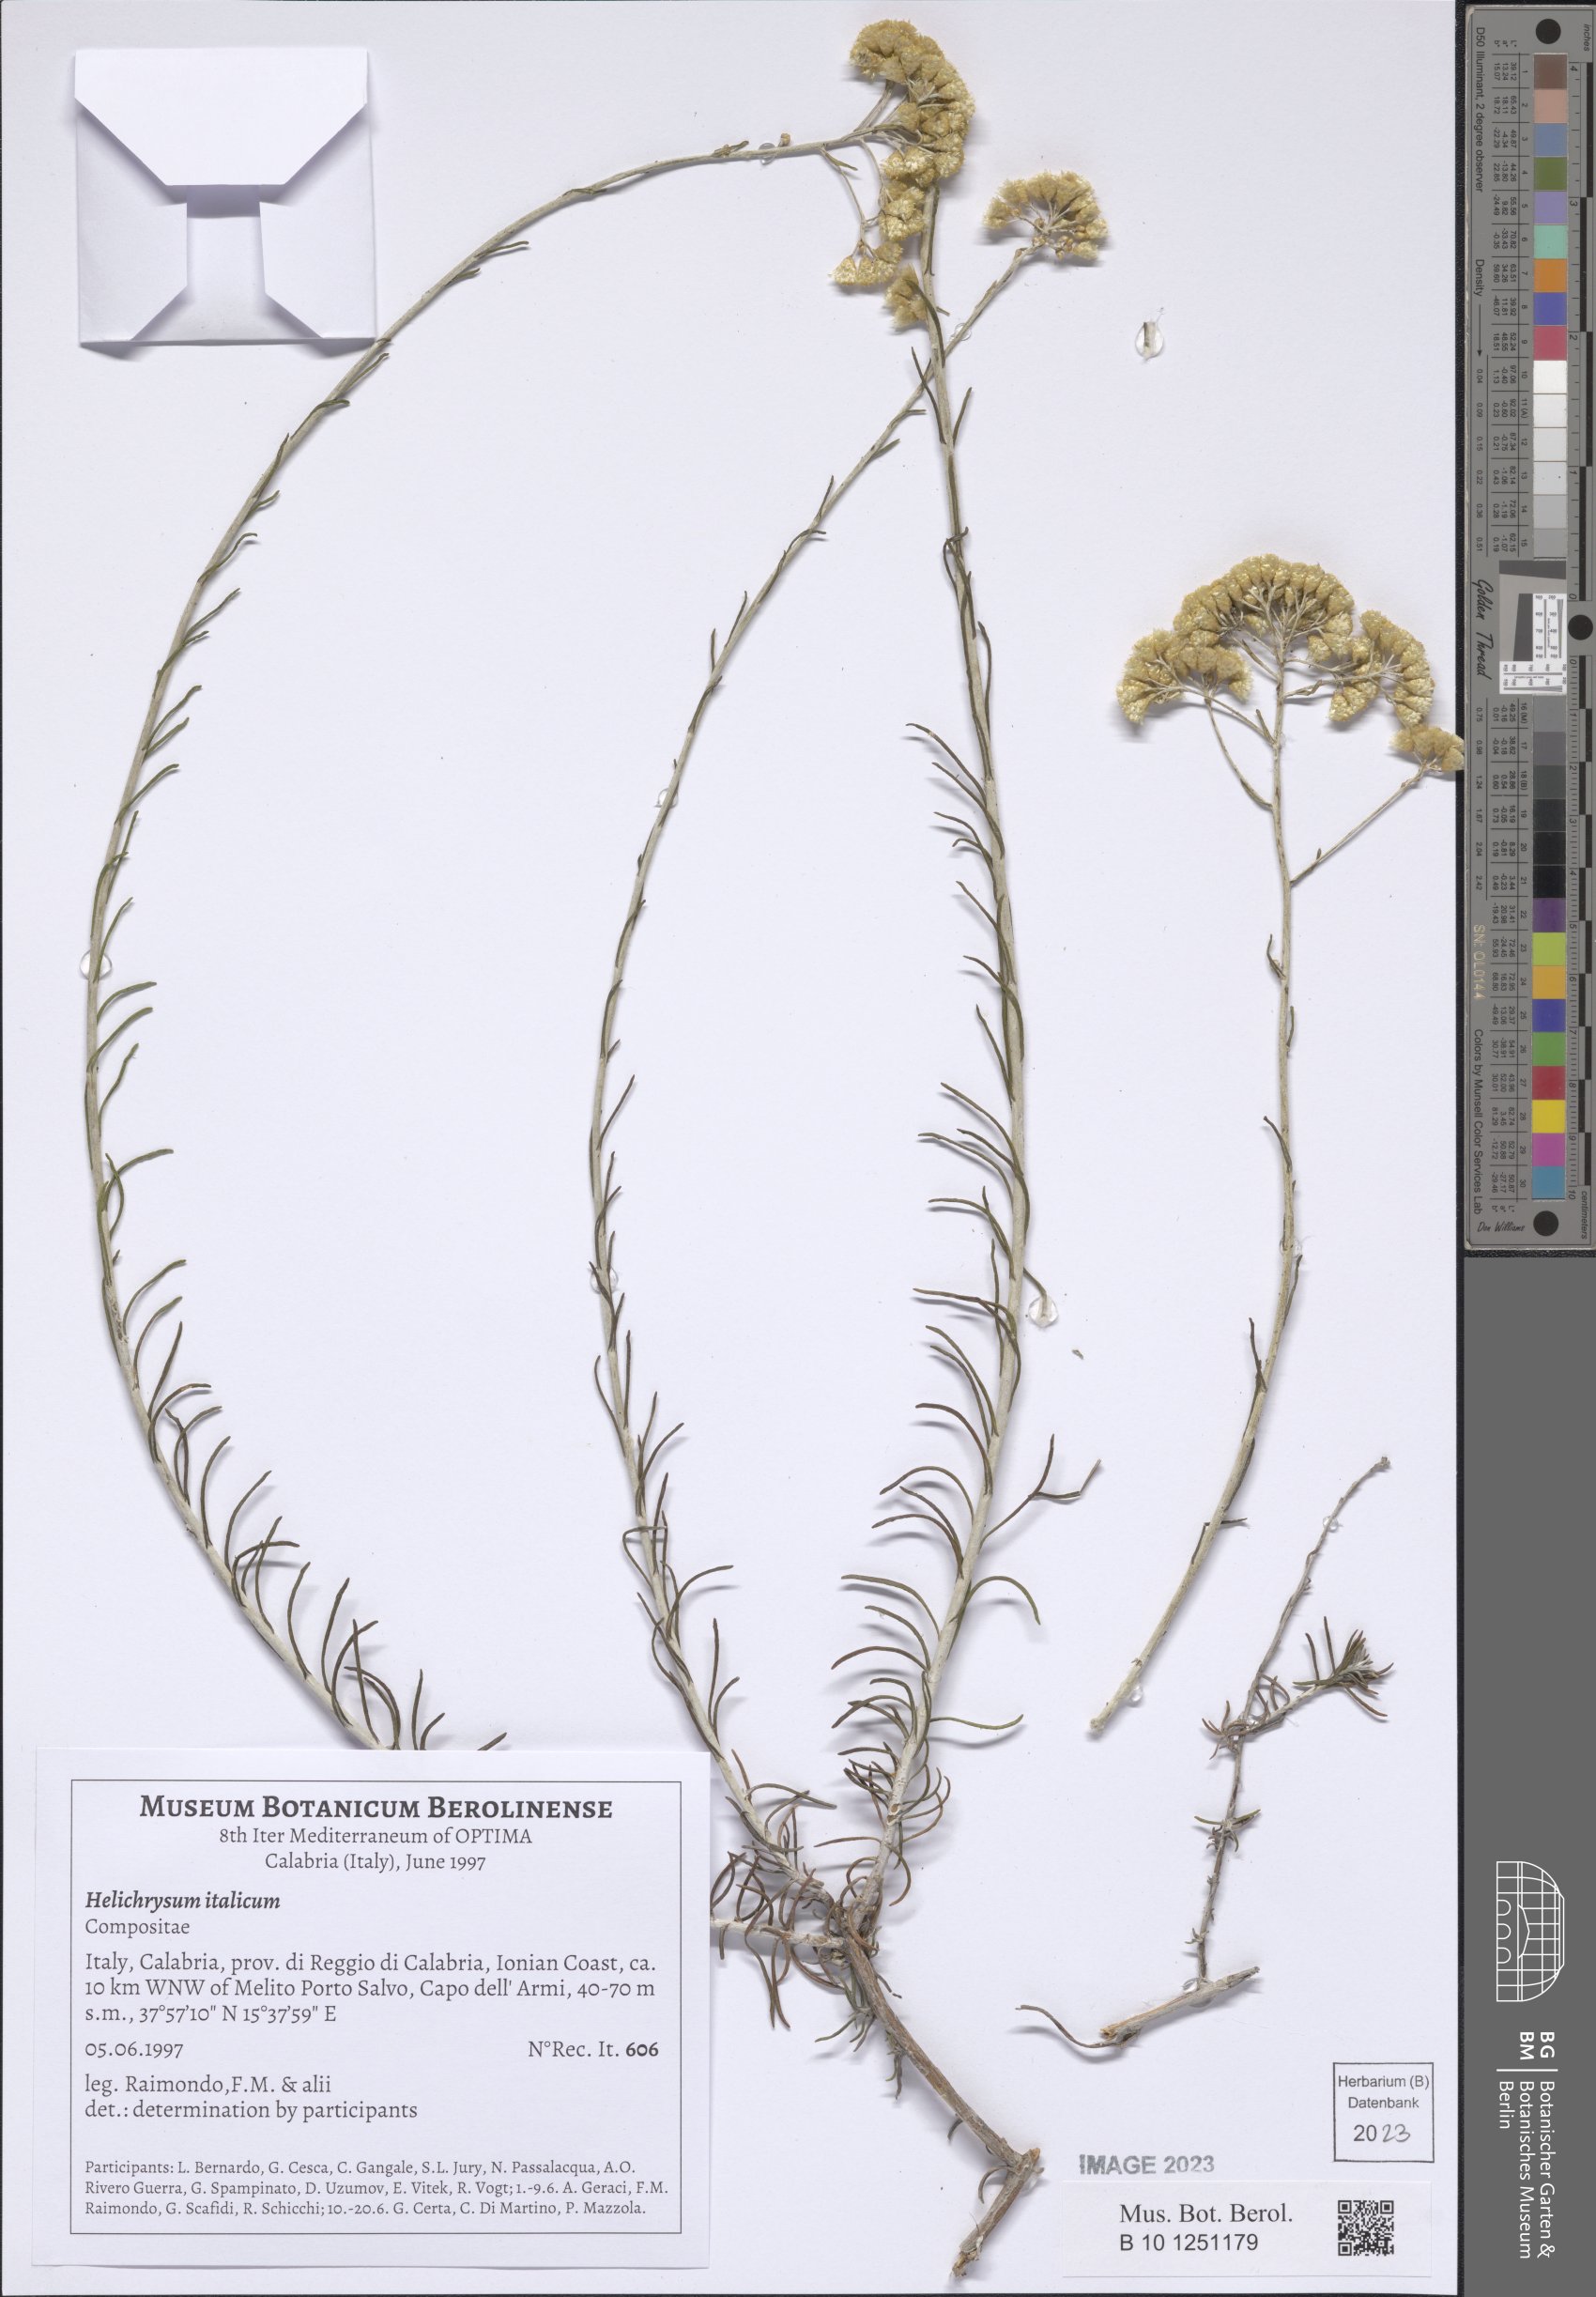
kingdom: Plantae
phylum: Tracheophyta
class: Magnoliopsida
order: Asterales
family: Asteraceae
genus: Helichrysum
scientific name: Helichrysum italicum
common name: Curryplant
